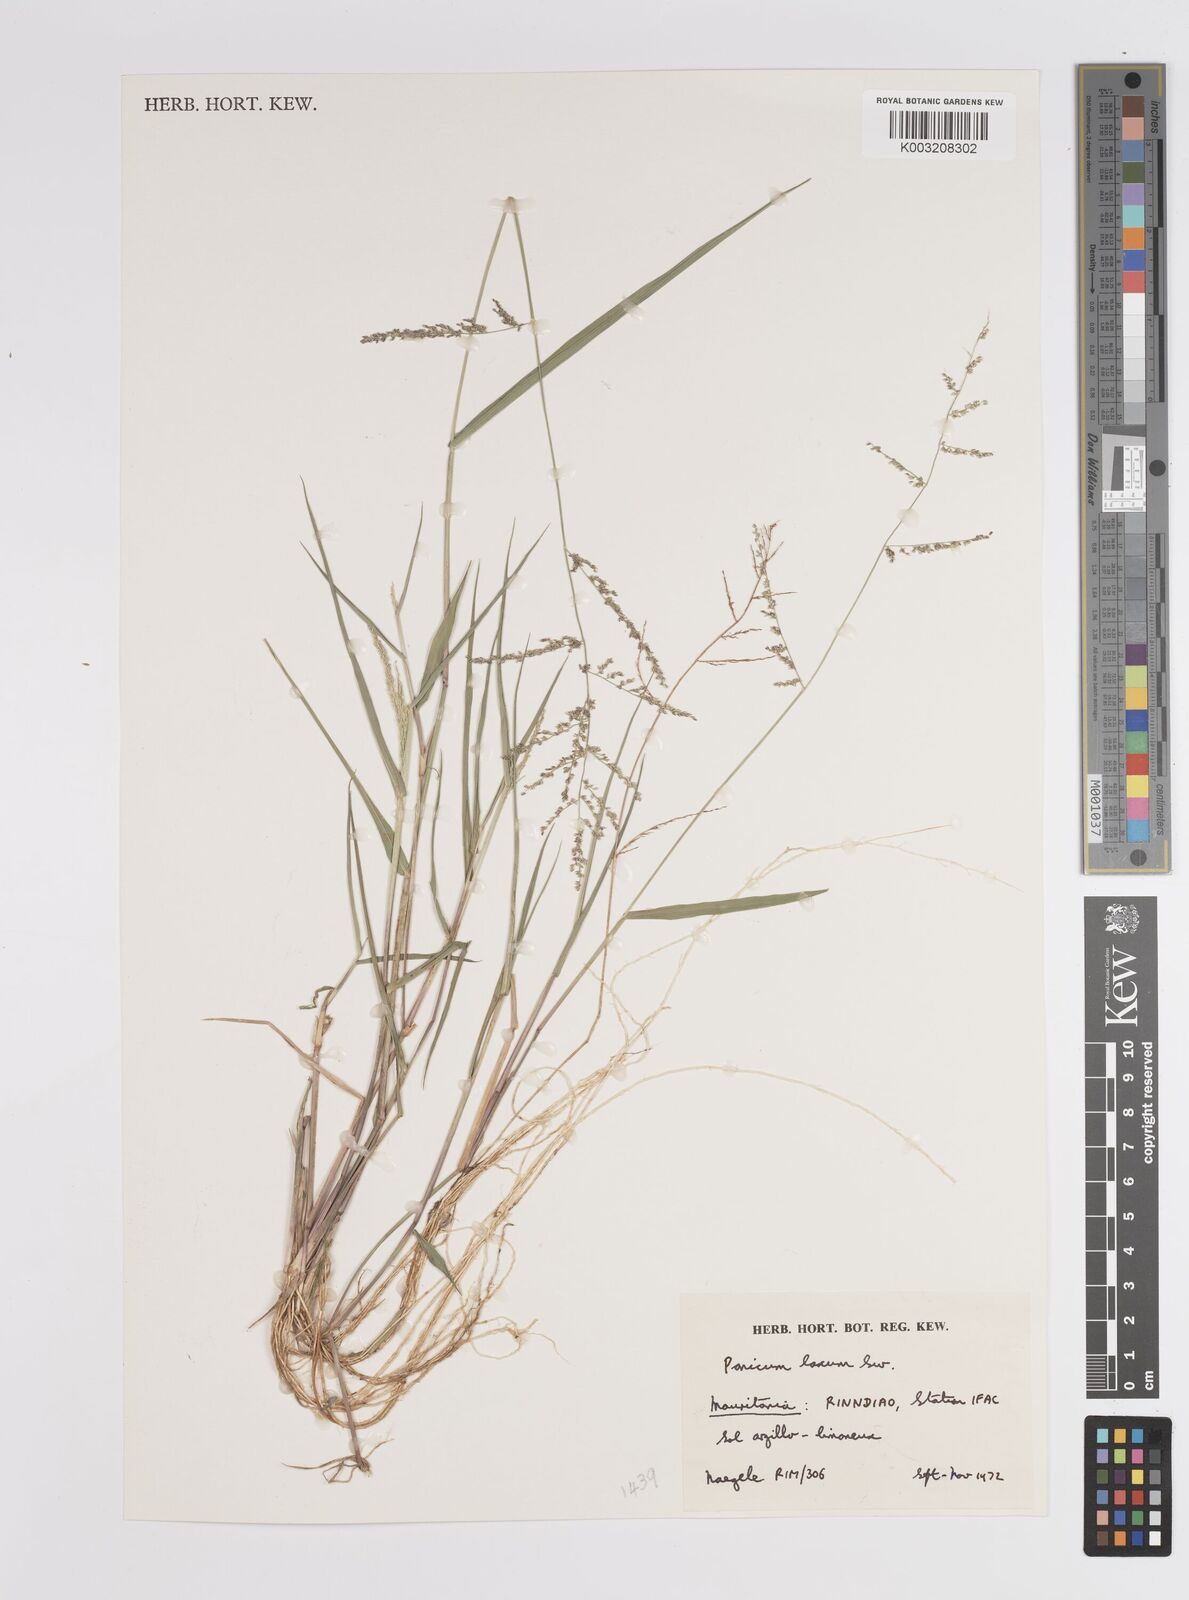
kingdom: Plantae
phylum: Tracheophyta
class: Liliopsida
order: Poales
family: Poaceae
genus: Steinchisma
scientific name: Steinchisma laxum
